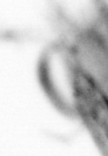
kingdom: Animalia
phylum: Arthropoda
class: Copepoda
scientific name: Copepoda
